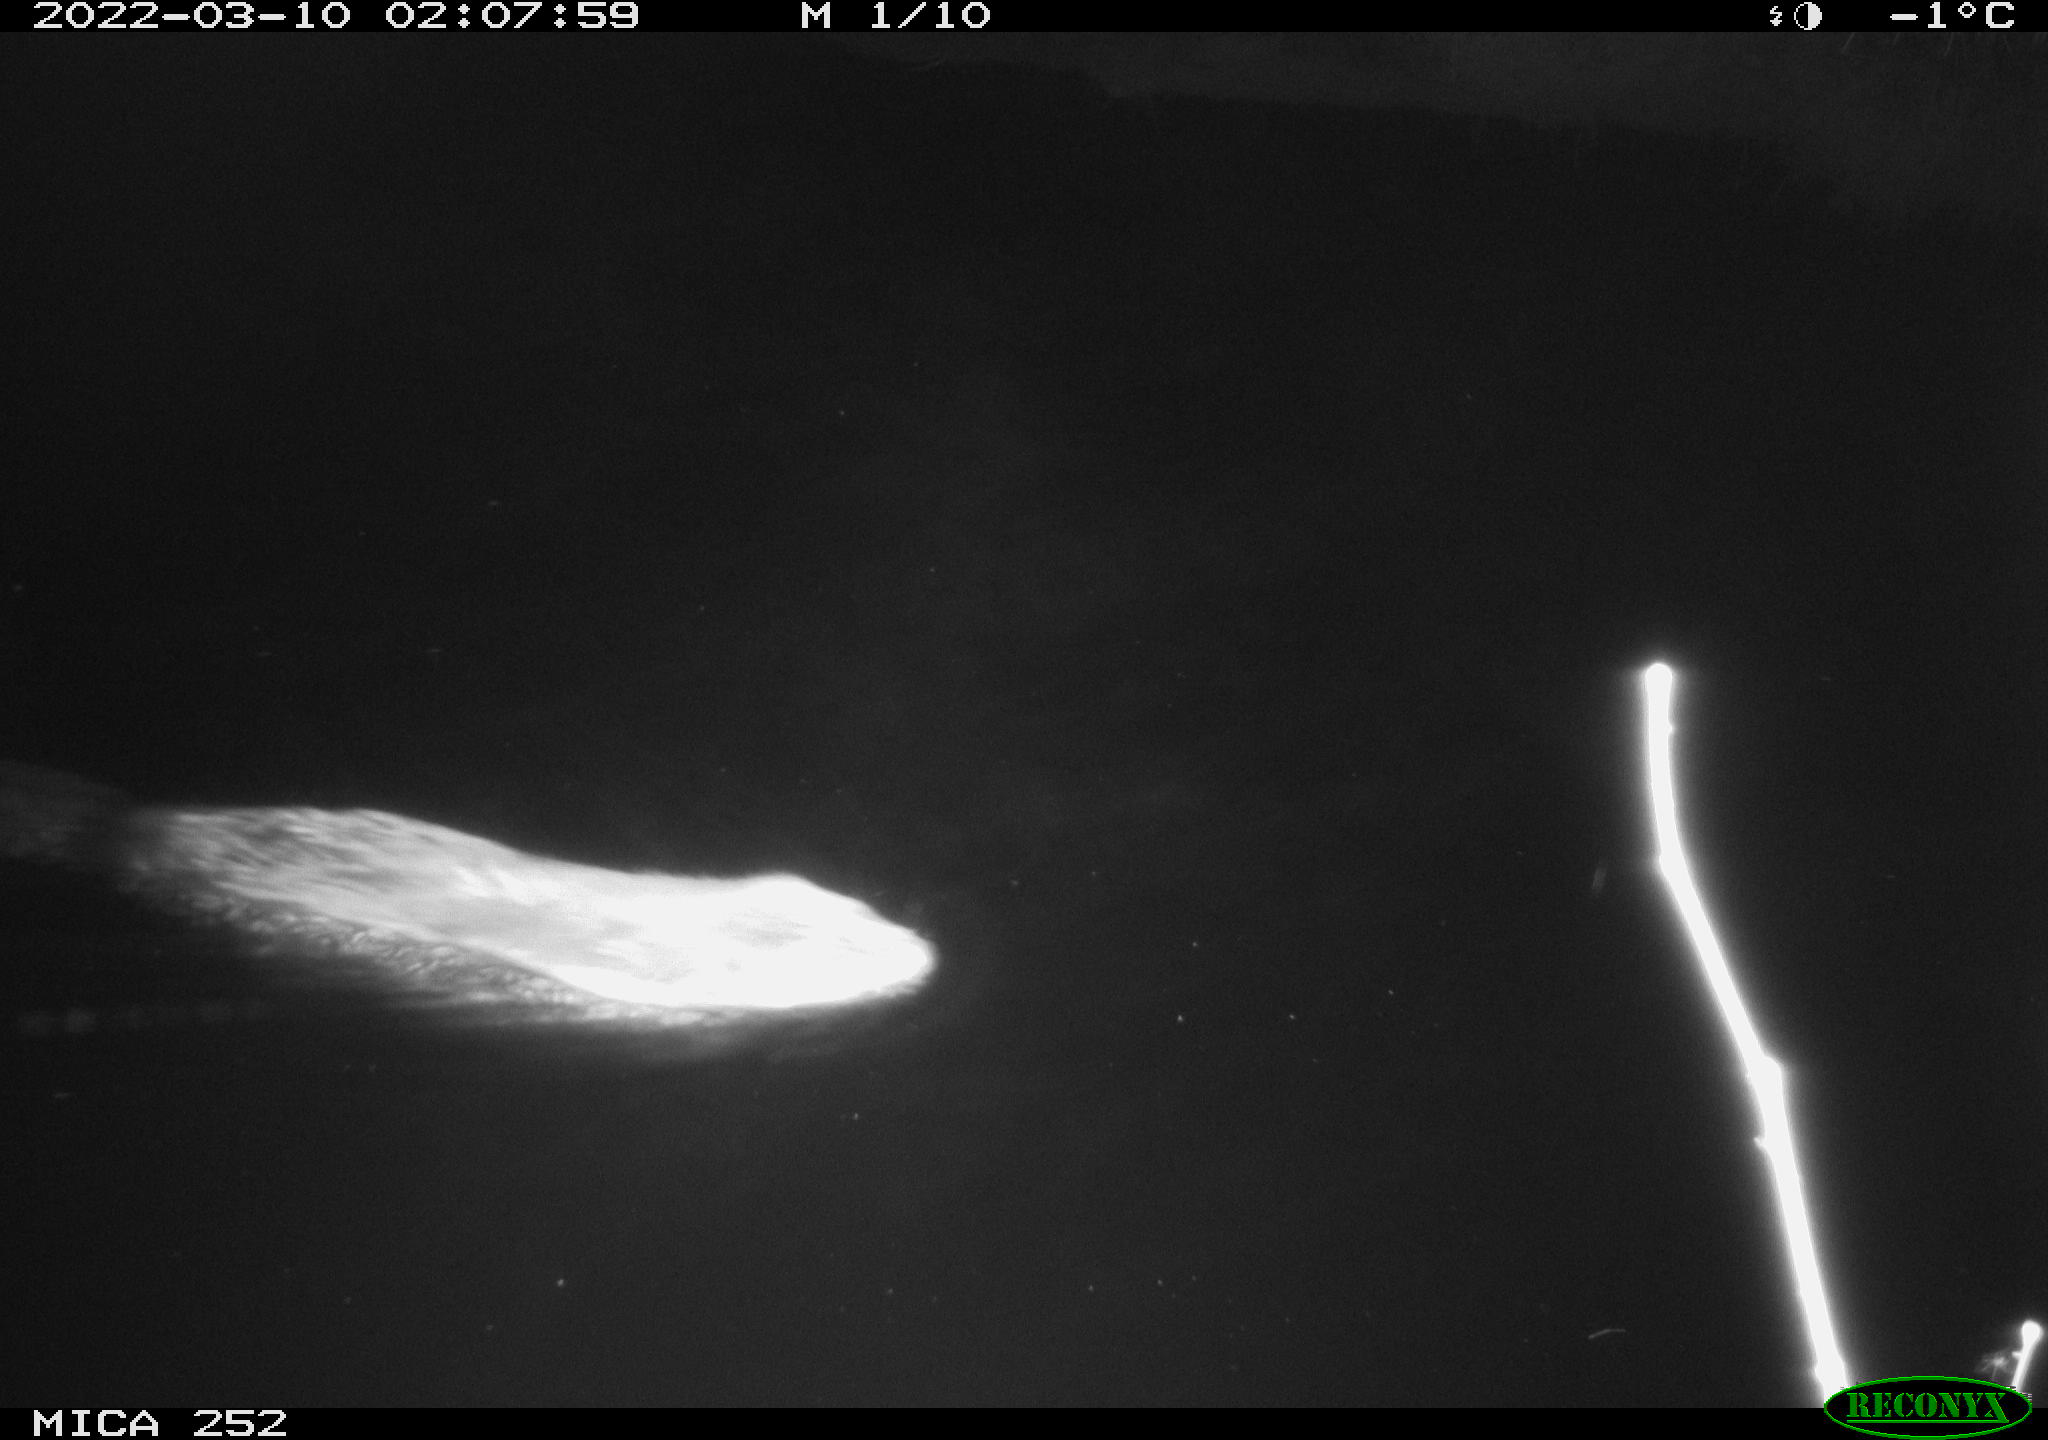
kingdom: Animalia
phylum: Chordata
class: Mammalia
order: Rodentia
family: Castoridae
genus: Castor
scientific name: Castor fiber
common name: Eurasian beaver
